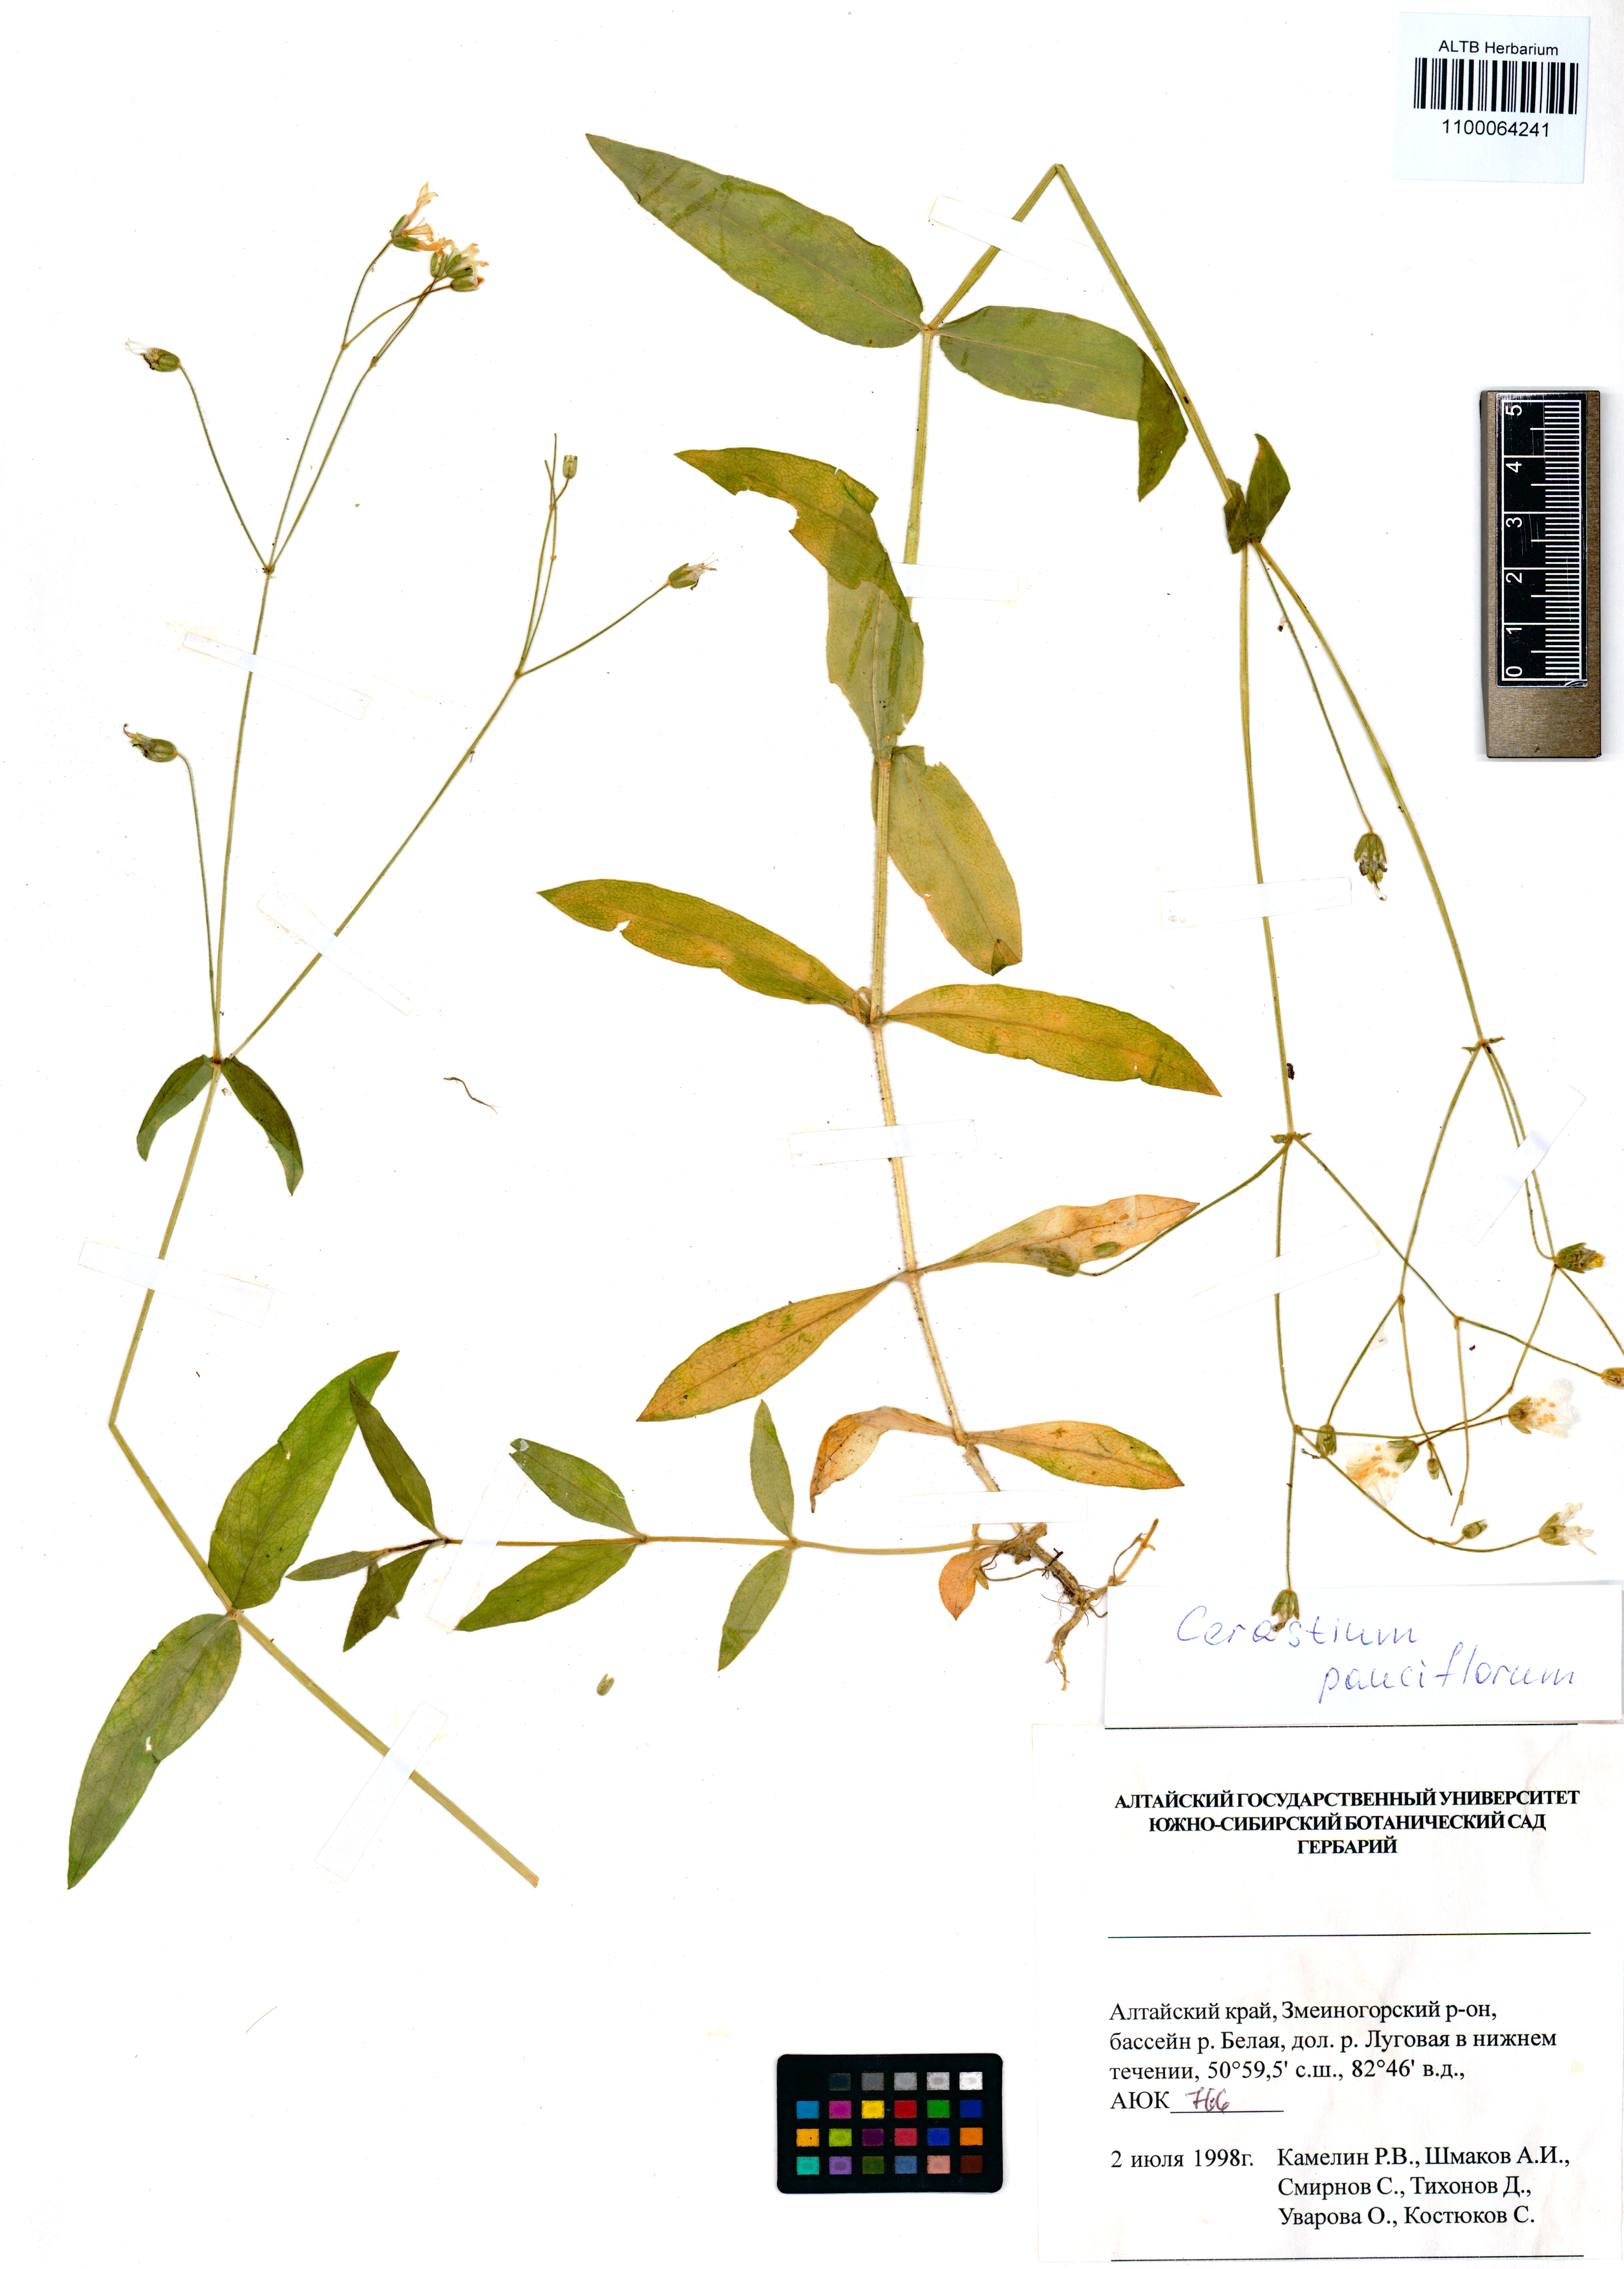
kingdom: Plantae
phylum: Tracheophyta
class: Magnoliopsida
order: Caryophyllales
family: Caryophyllaceae
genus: Cerastium
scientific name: Cerastium pauciflorum
